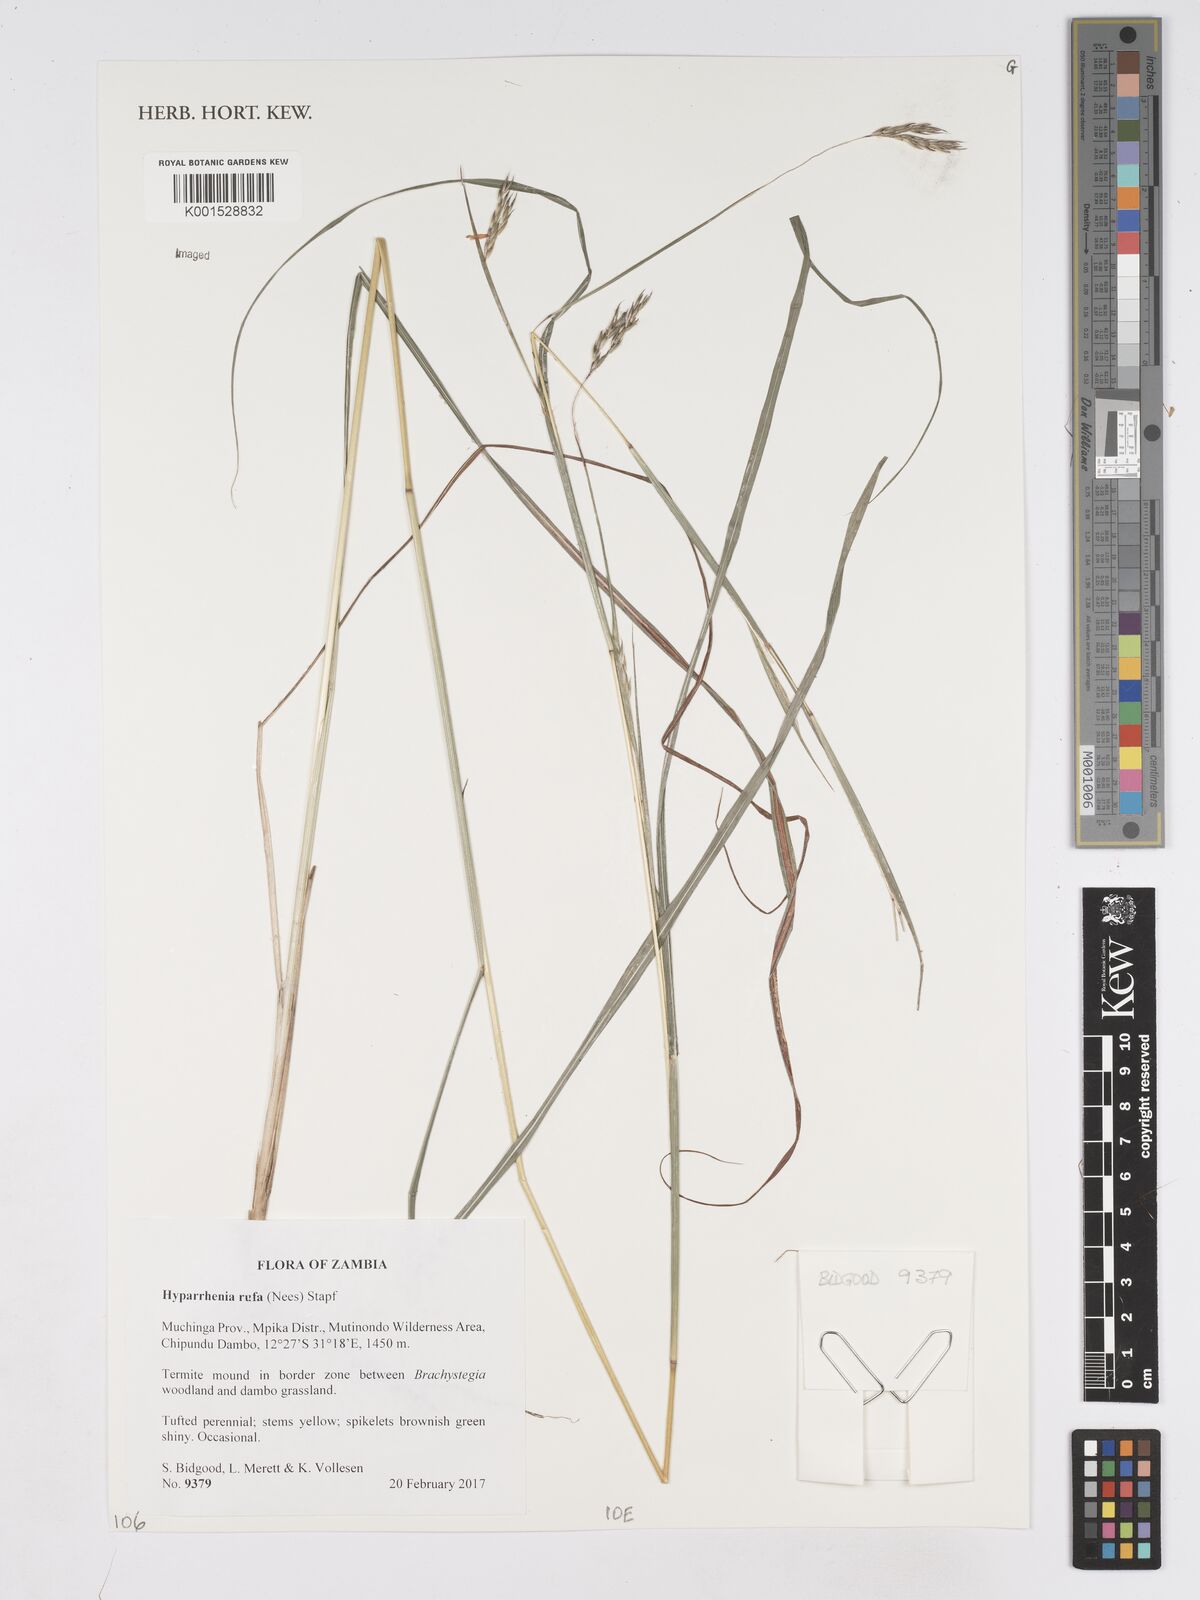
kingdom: Plantae
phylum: Tracheophyta
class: Liliopsida
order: Poales
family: Poaceae
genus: Hyparrhenia
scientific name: Hyparrhenia rufa
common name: Jaraguagrass
